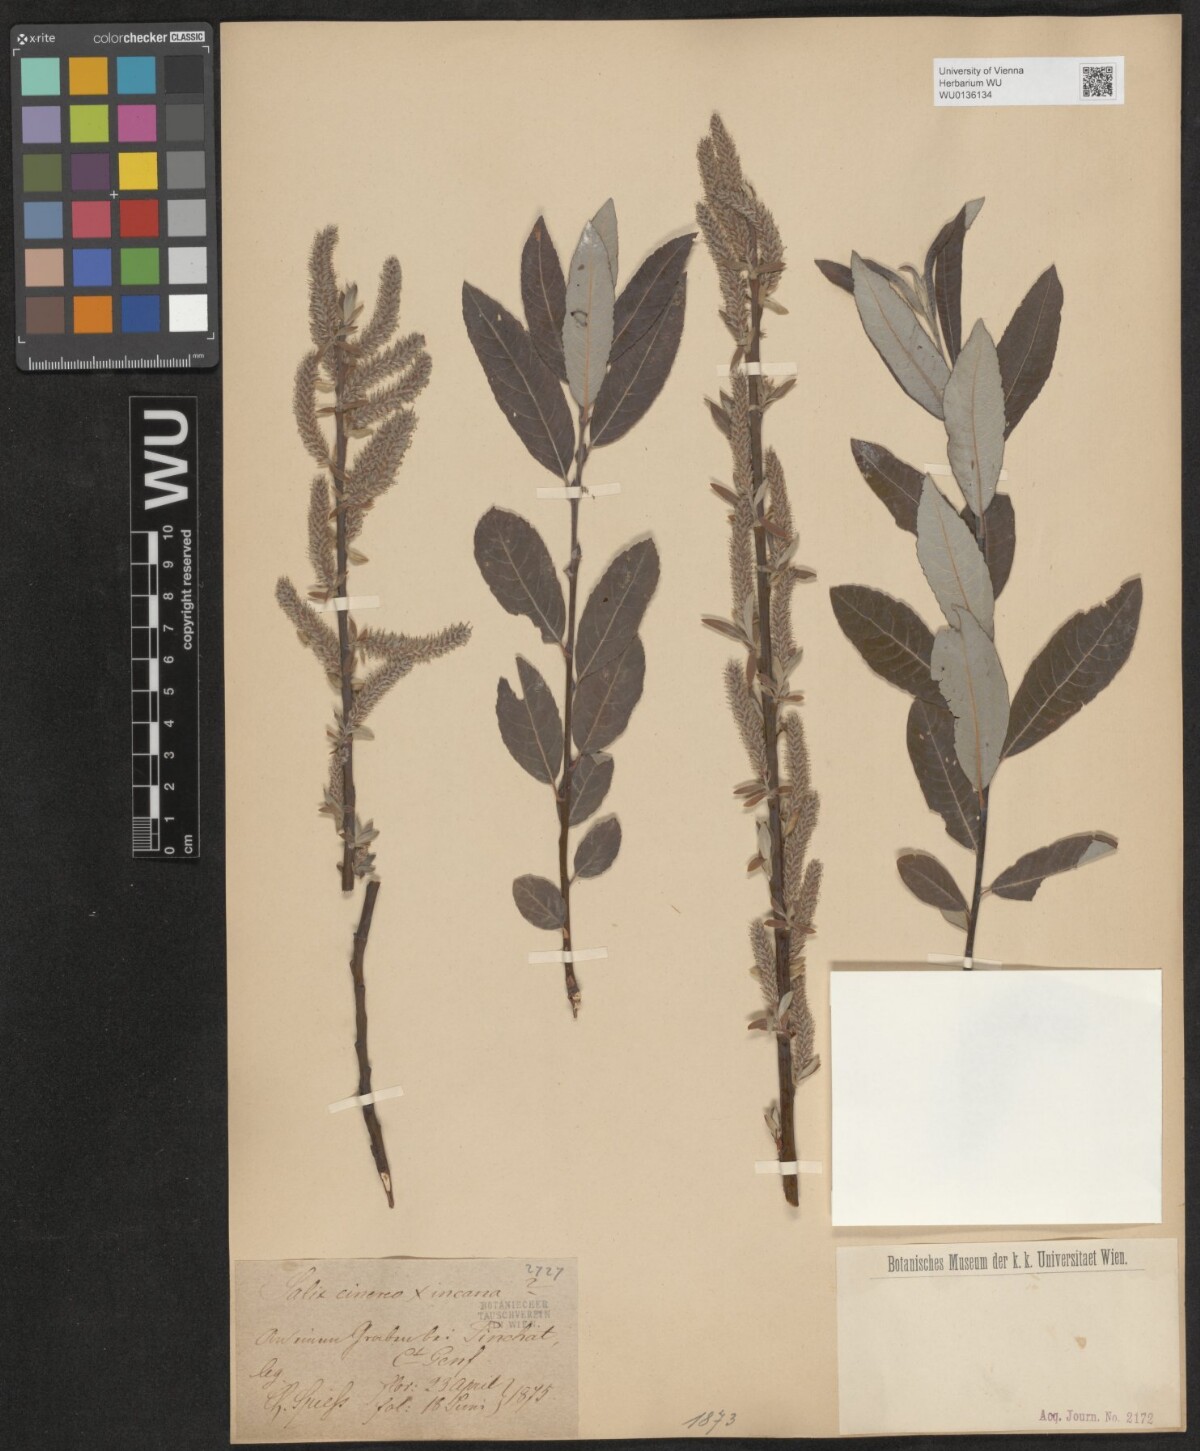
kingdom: Plantae
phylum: Tracheophyta
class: Magnoliopsida
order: Malpighiales
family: Salicaceae
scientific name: Salicaceae
